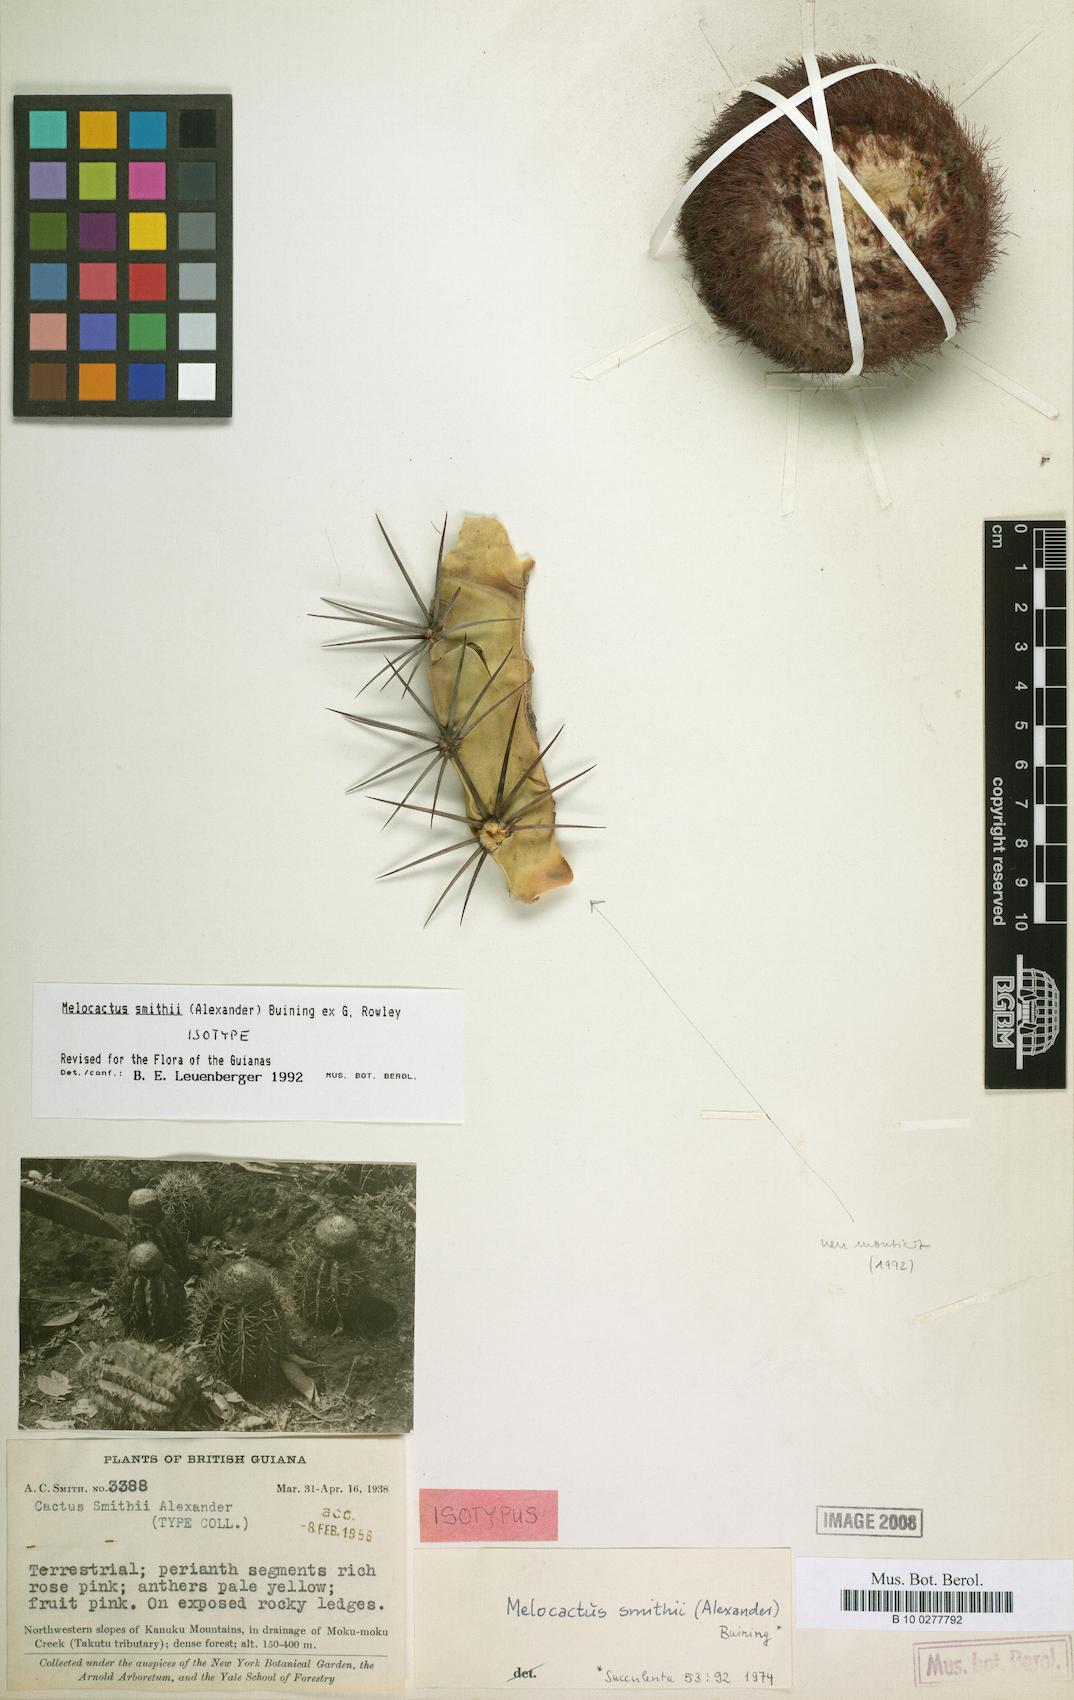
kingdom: Plantae
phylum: Tracheophyta
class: Magnoliopsida
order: Caryophyllales
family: Cactaceae
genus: Melocactus
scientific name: Melocactus smithii
